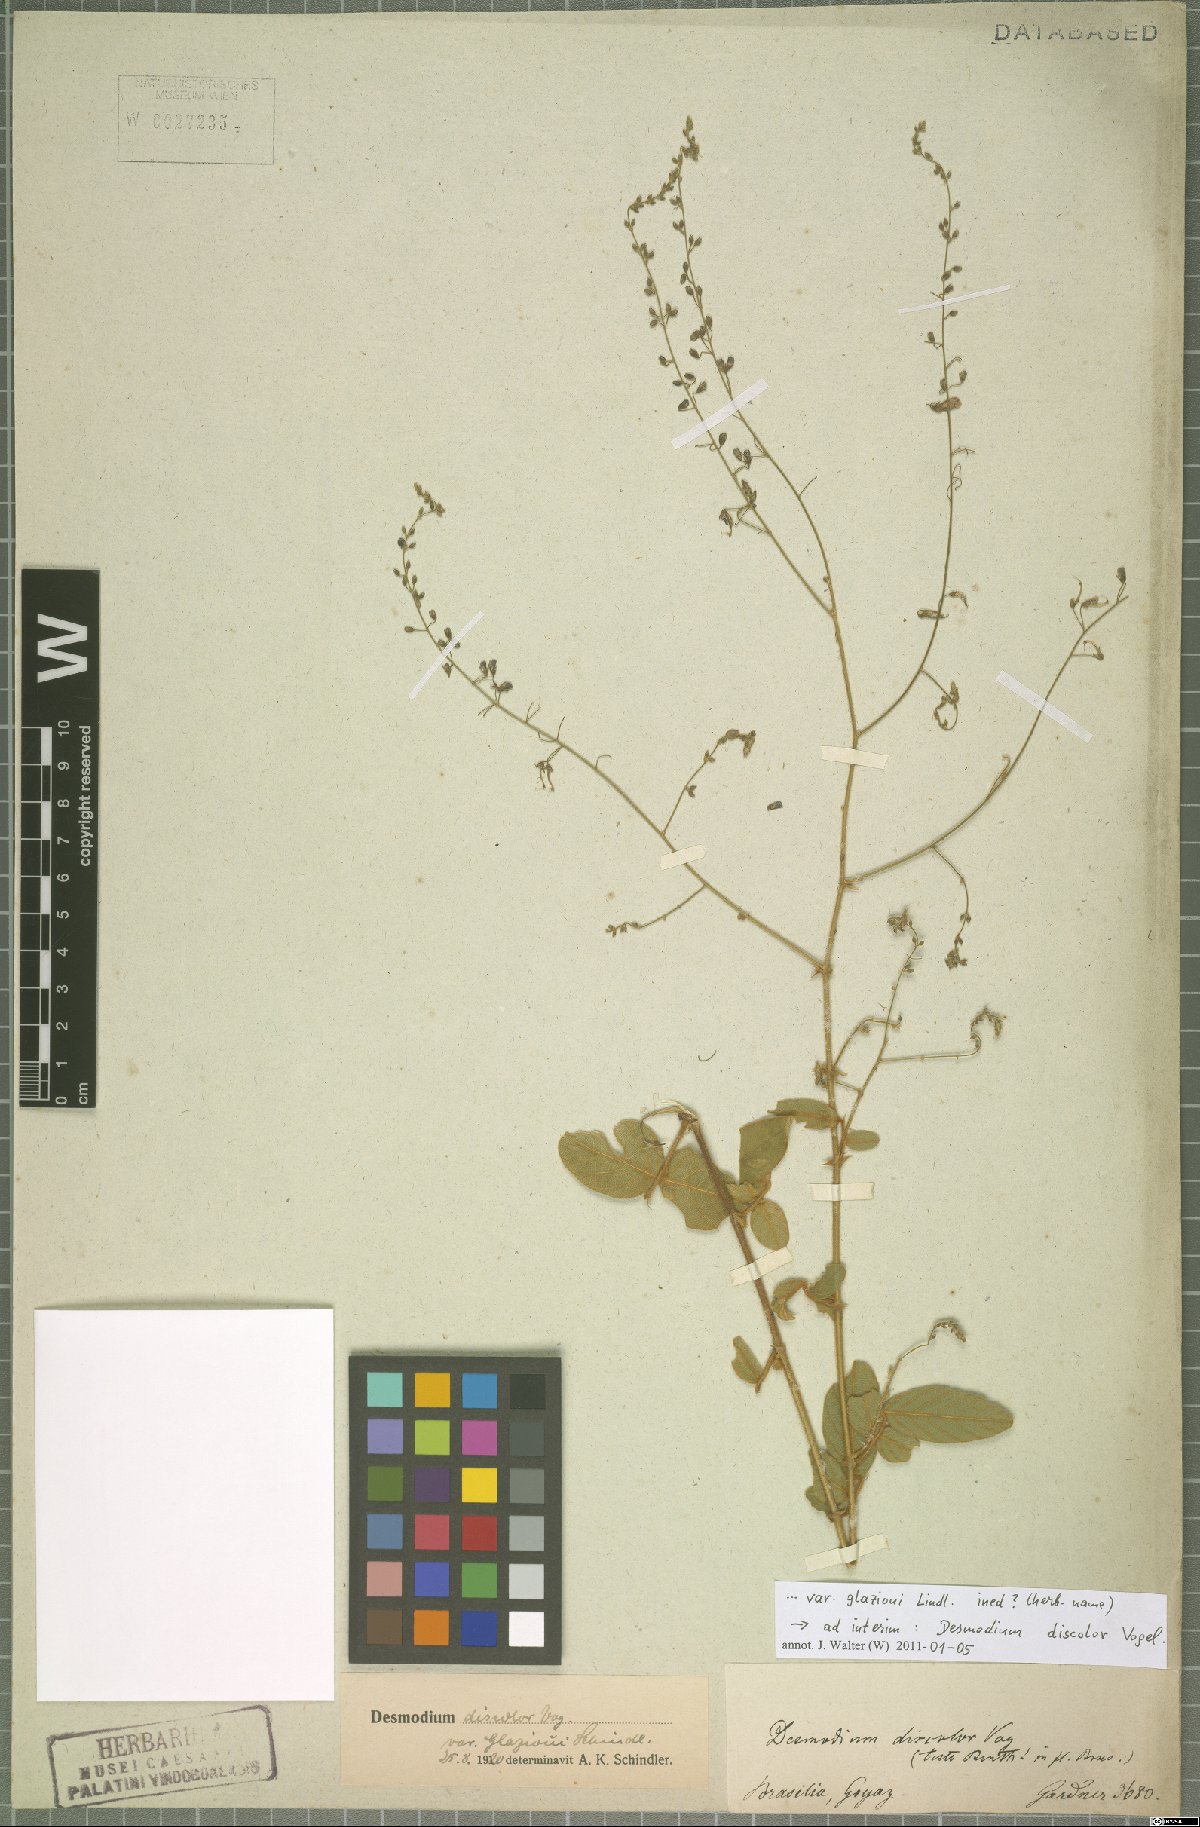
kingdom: Plantae
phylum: Tracheophyta
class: Magnoliopsida
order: Fabales
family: Fabaceae
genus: Desmodium
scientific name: Desmodium subsecundum
